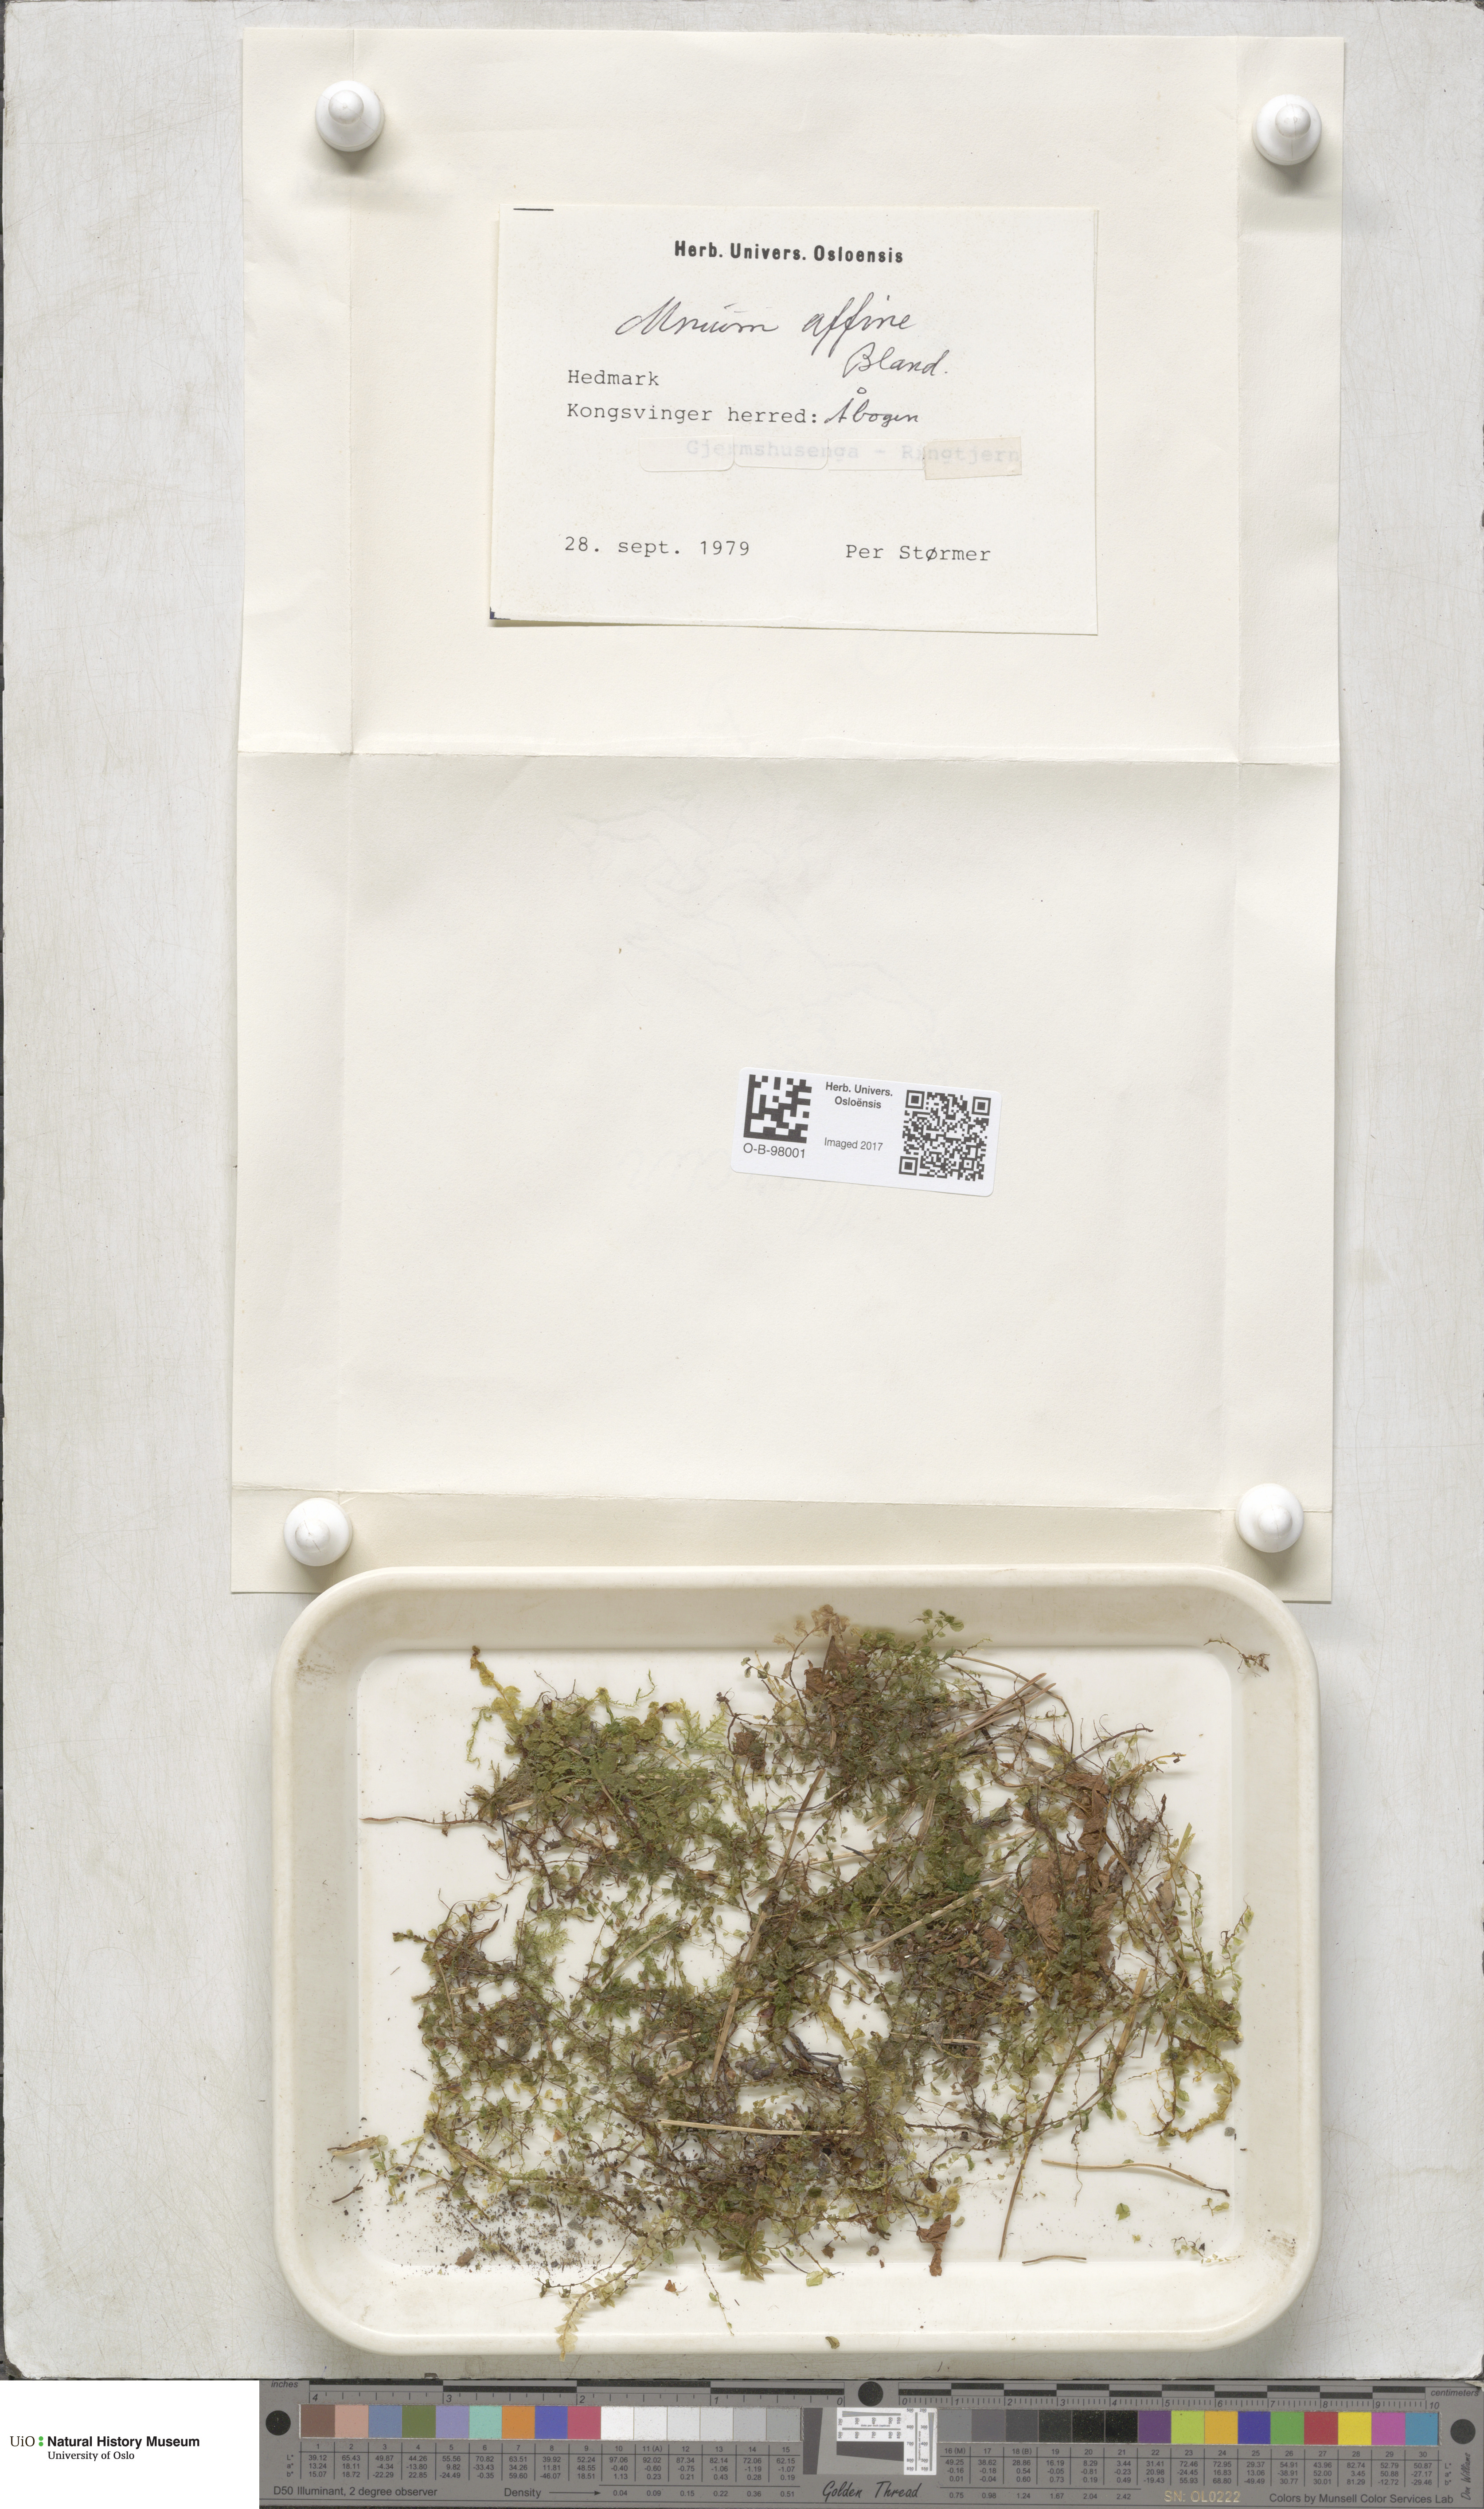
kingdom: Plantae
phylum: Bryophyta
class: Bryopsida
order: Bryales
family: Mniaceae
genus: Plagiomnium
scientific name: Plagiomnium affine
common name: Many-fruited thyme-moss
